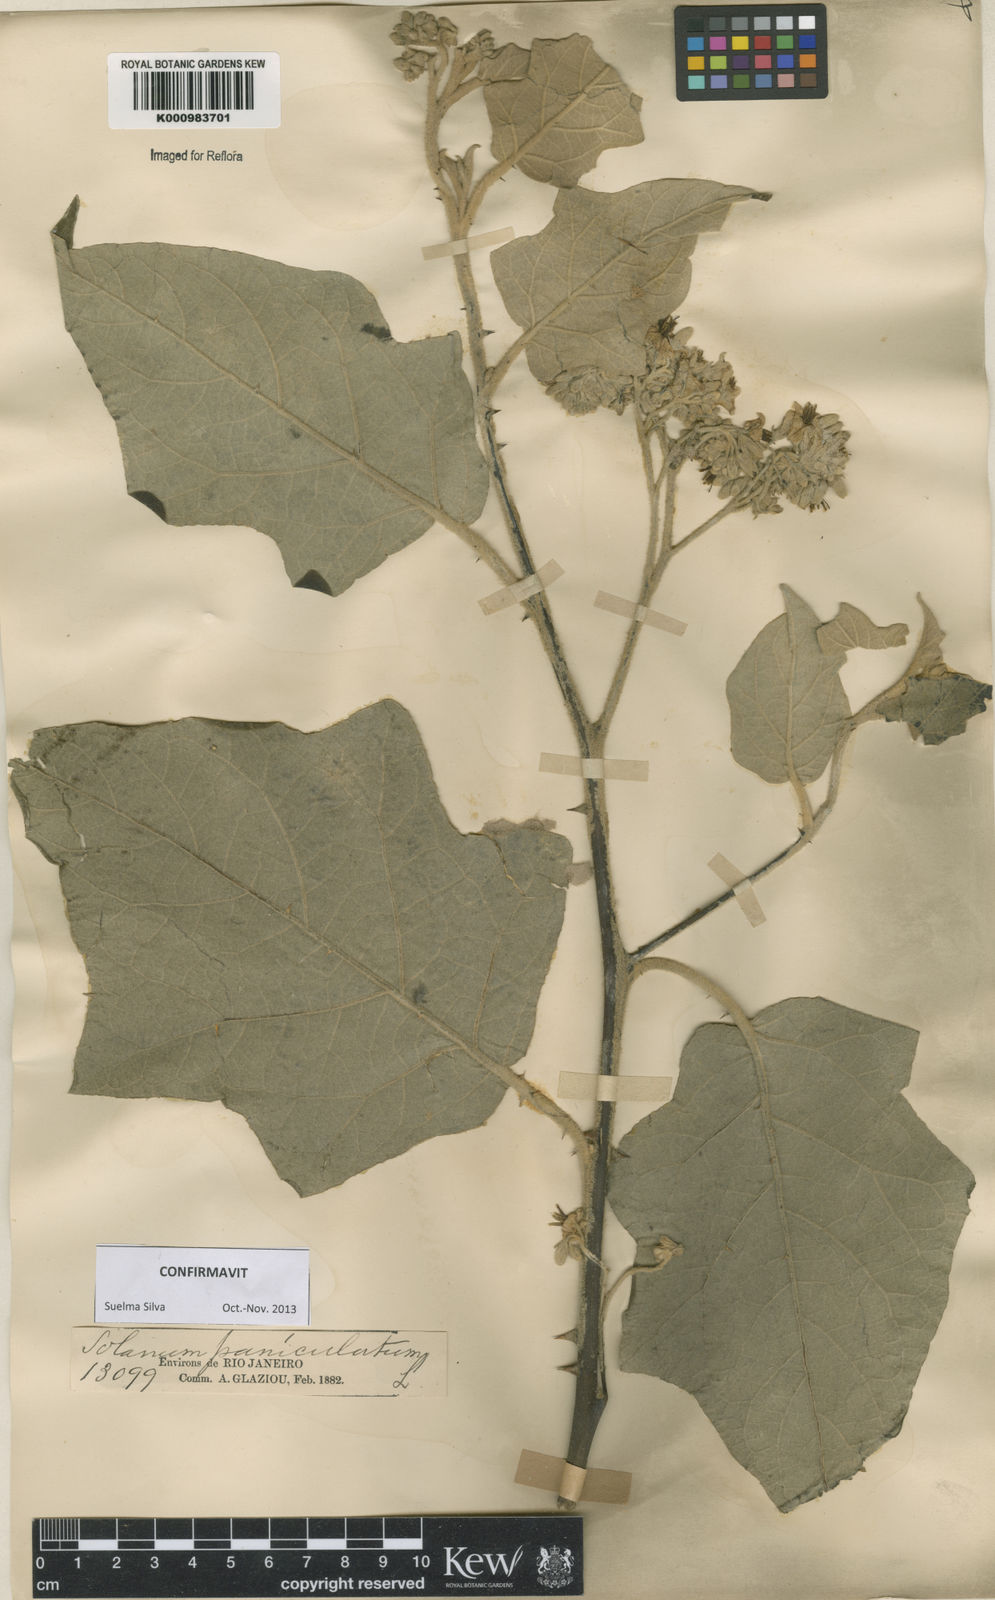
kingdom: Plantae
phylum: Tracheophyta
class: Magnoliopsida
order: Solanales
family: Solanaceae
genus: Solanum
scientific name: Solanum paniculatum
